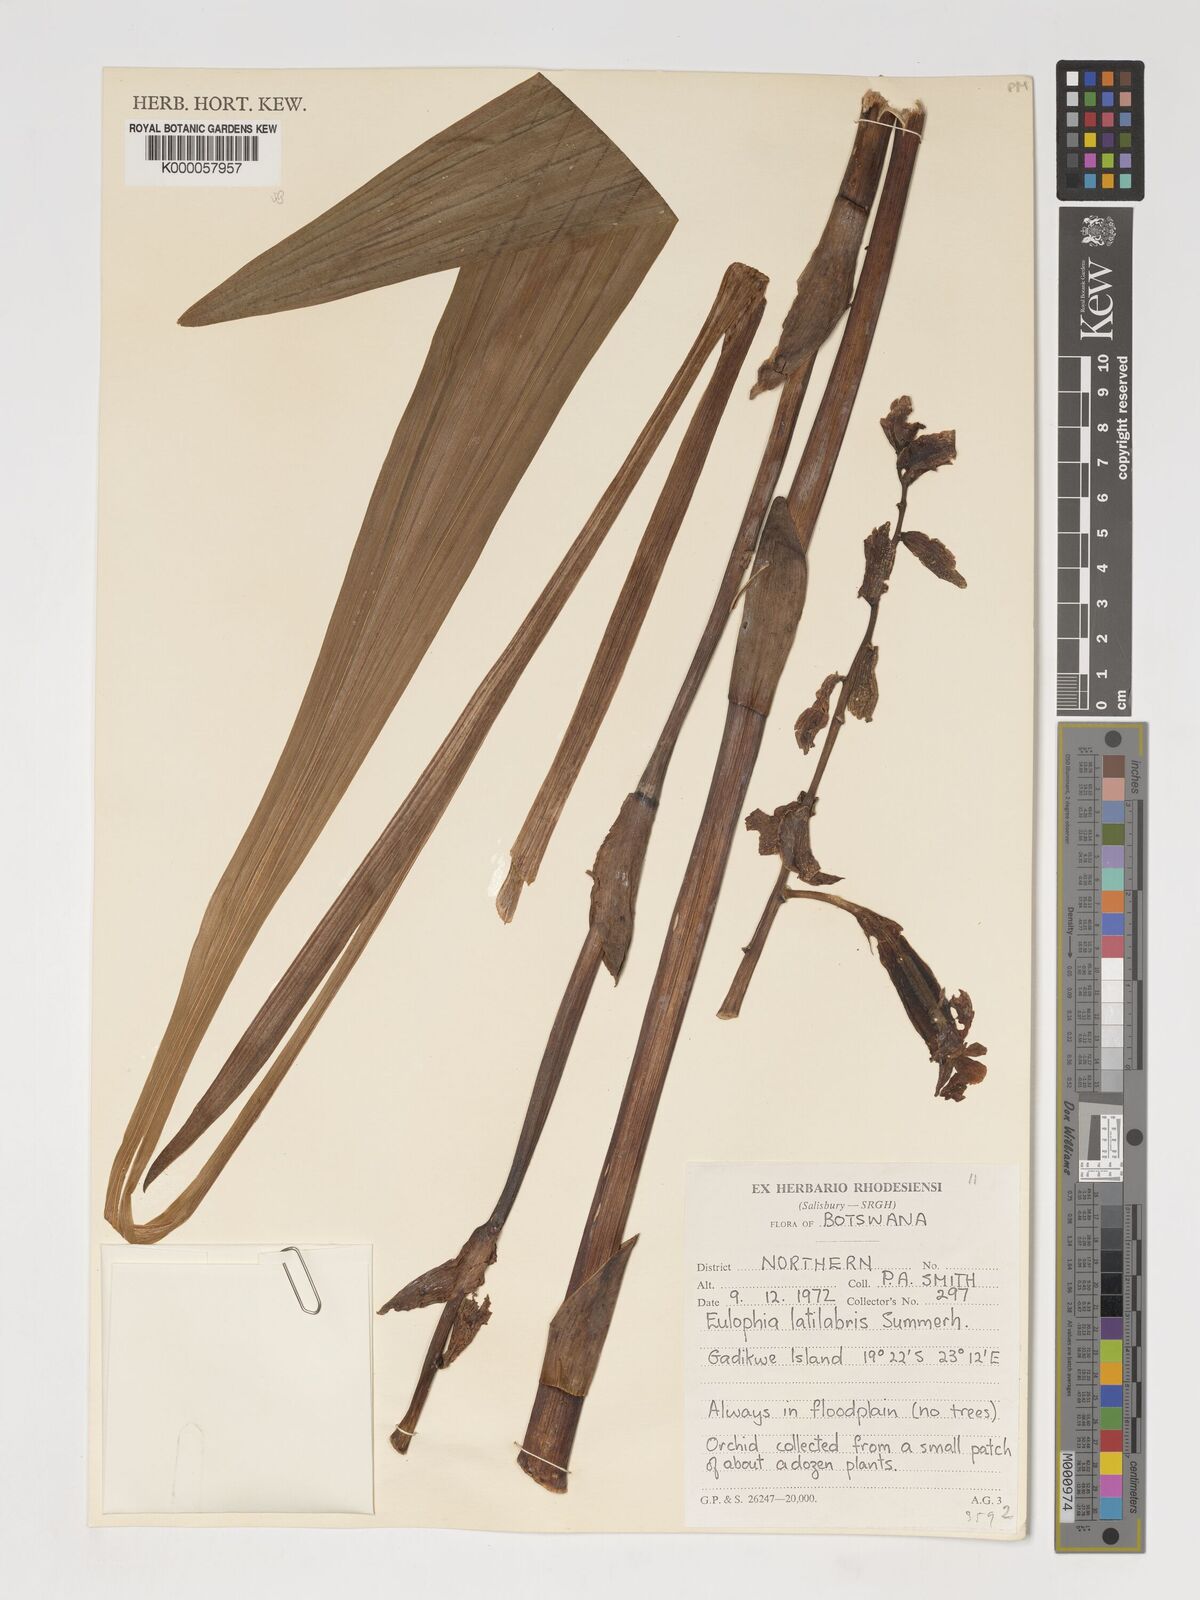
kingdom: Plantae
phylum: Tracheophyta
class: Liliopsida
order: Asparagales
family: Orchidaceae
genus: Eulophia
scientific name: Eulophia latilabris
